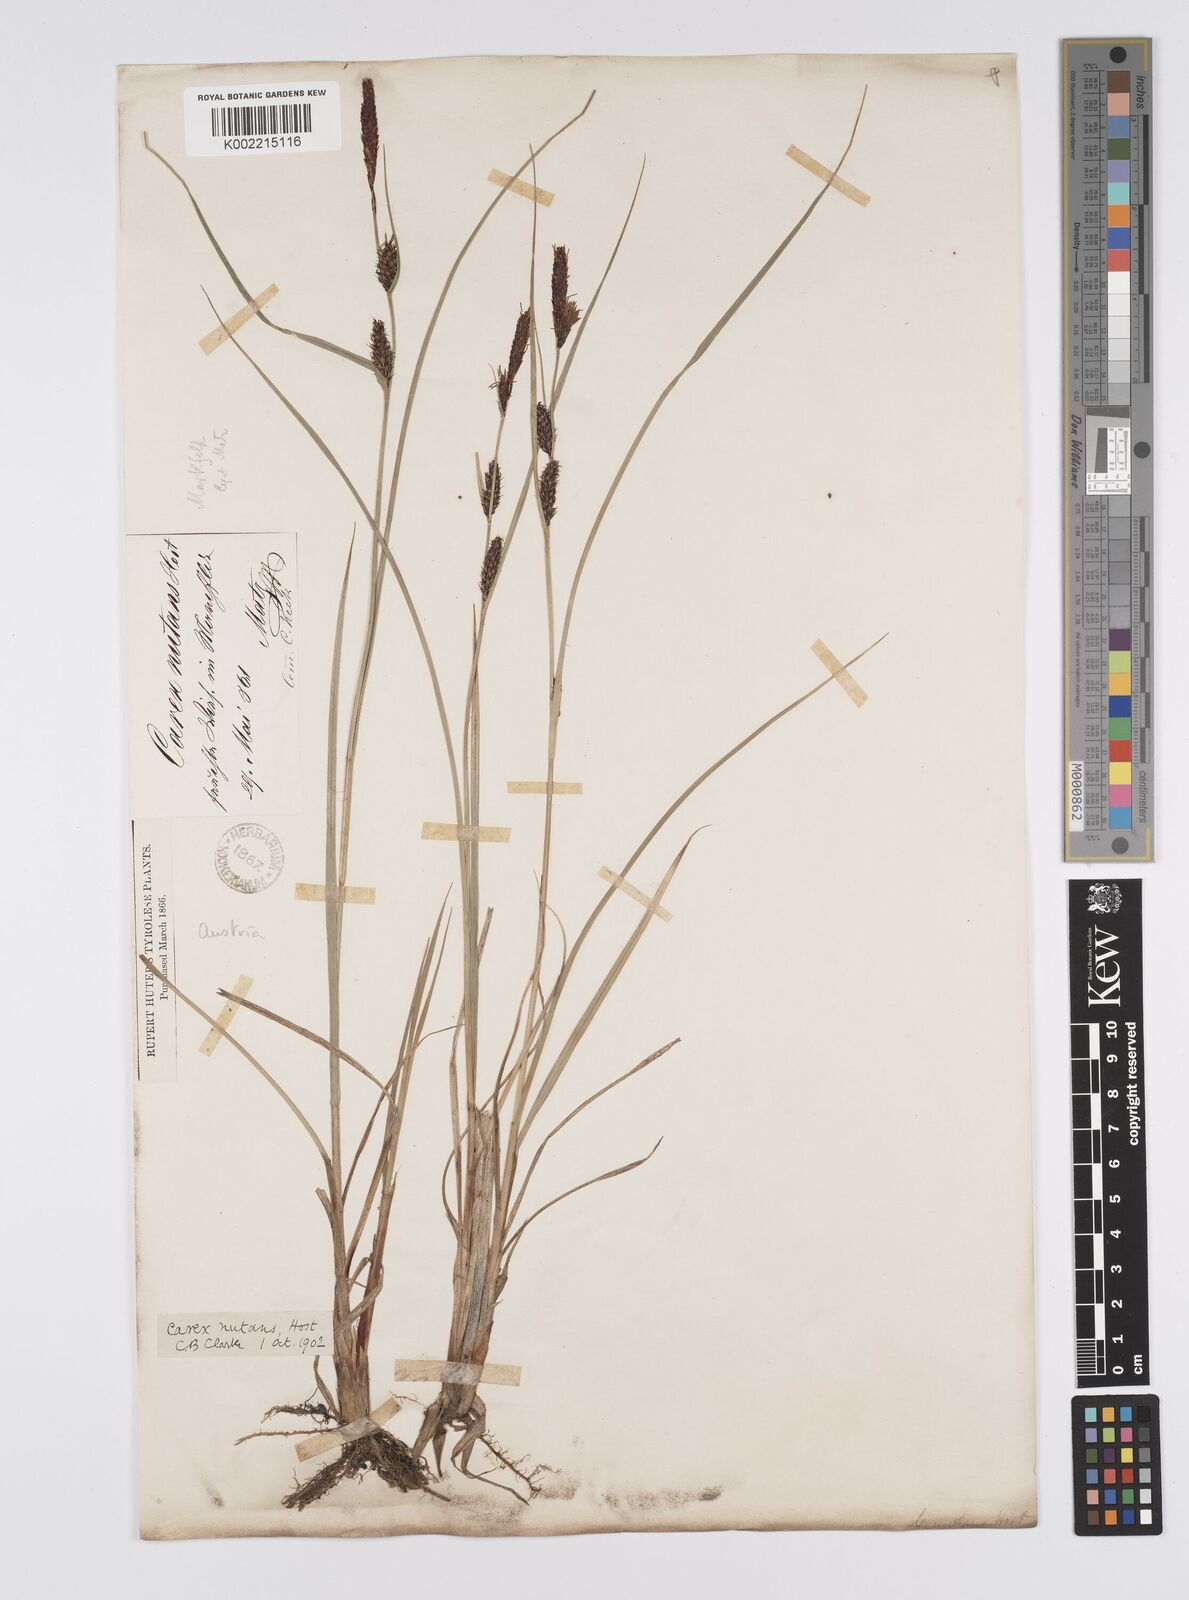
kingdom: Plantae
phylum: Tracheophyta
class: Liliopsida
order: Poales
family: Cyperaceae
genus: Carex
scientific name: Carex melanostachya
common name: Black-spiked sedge
